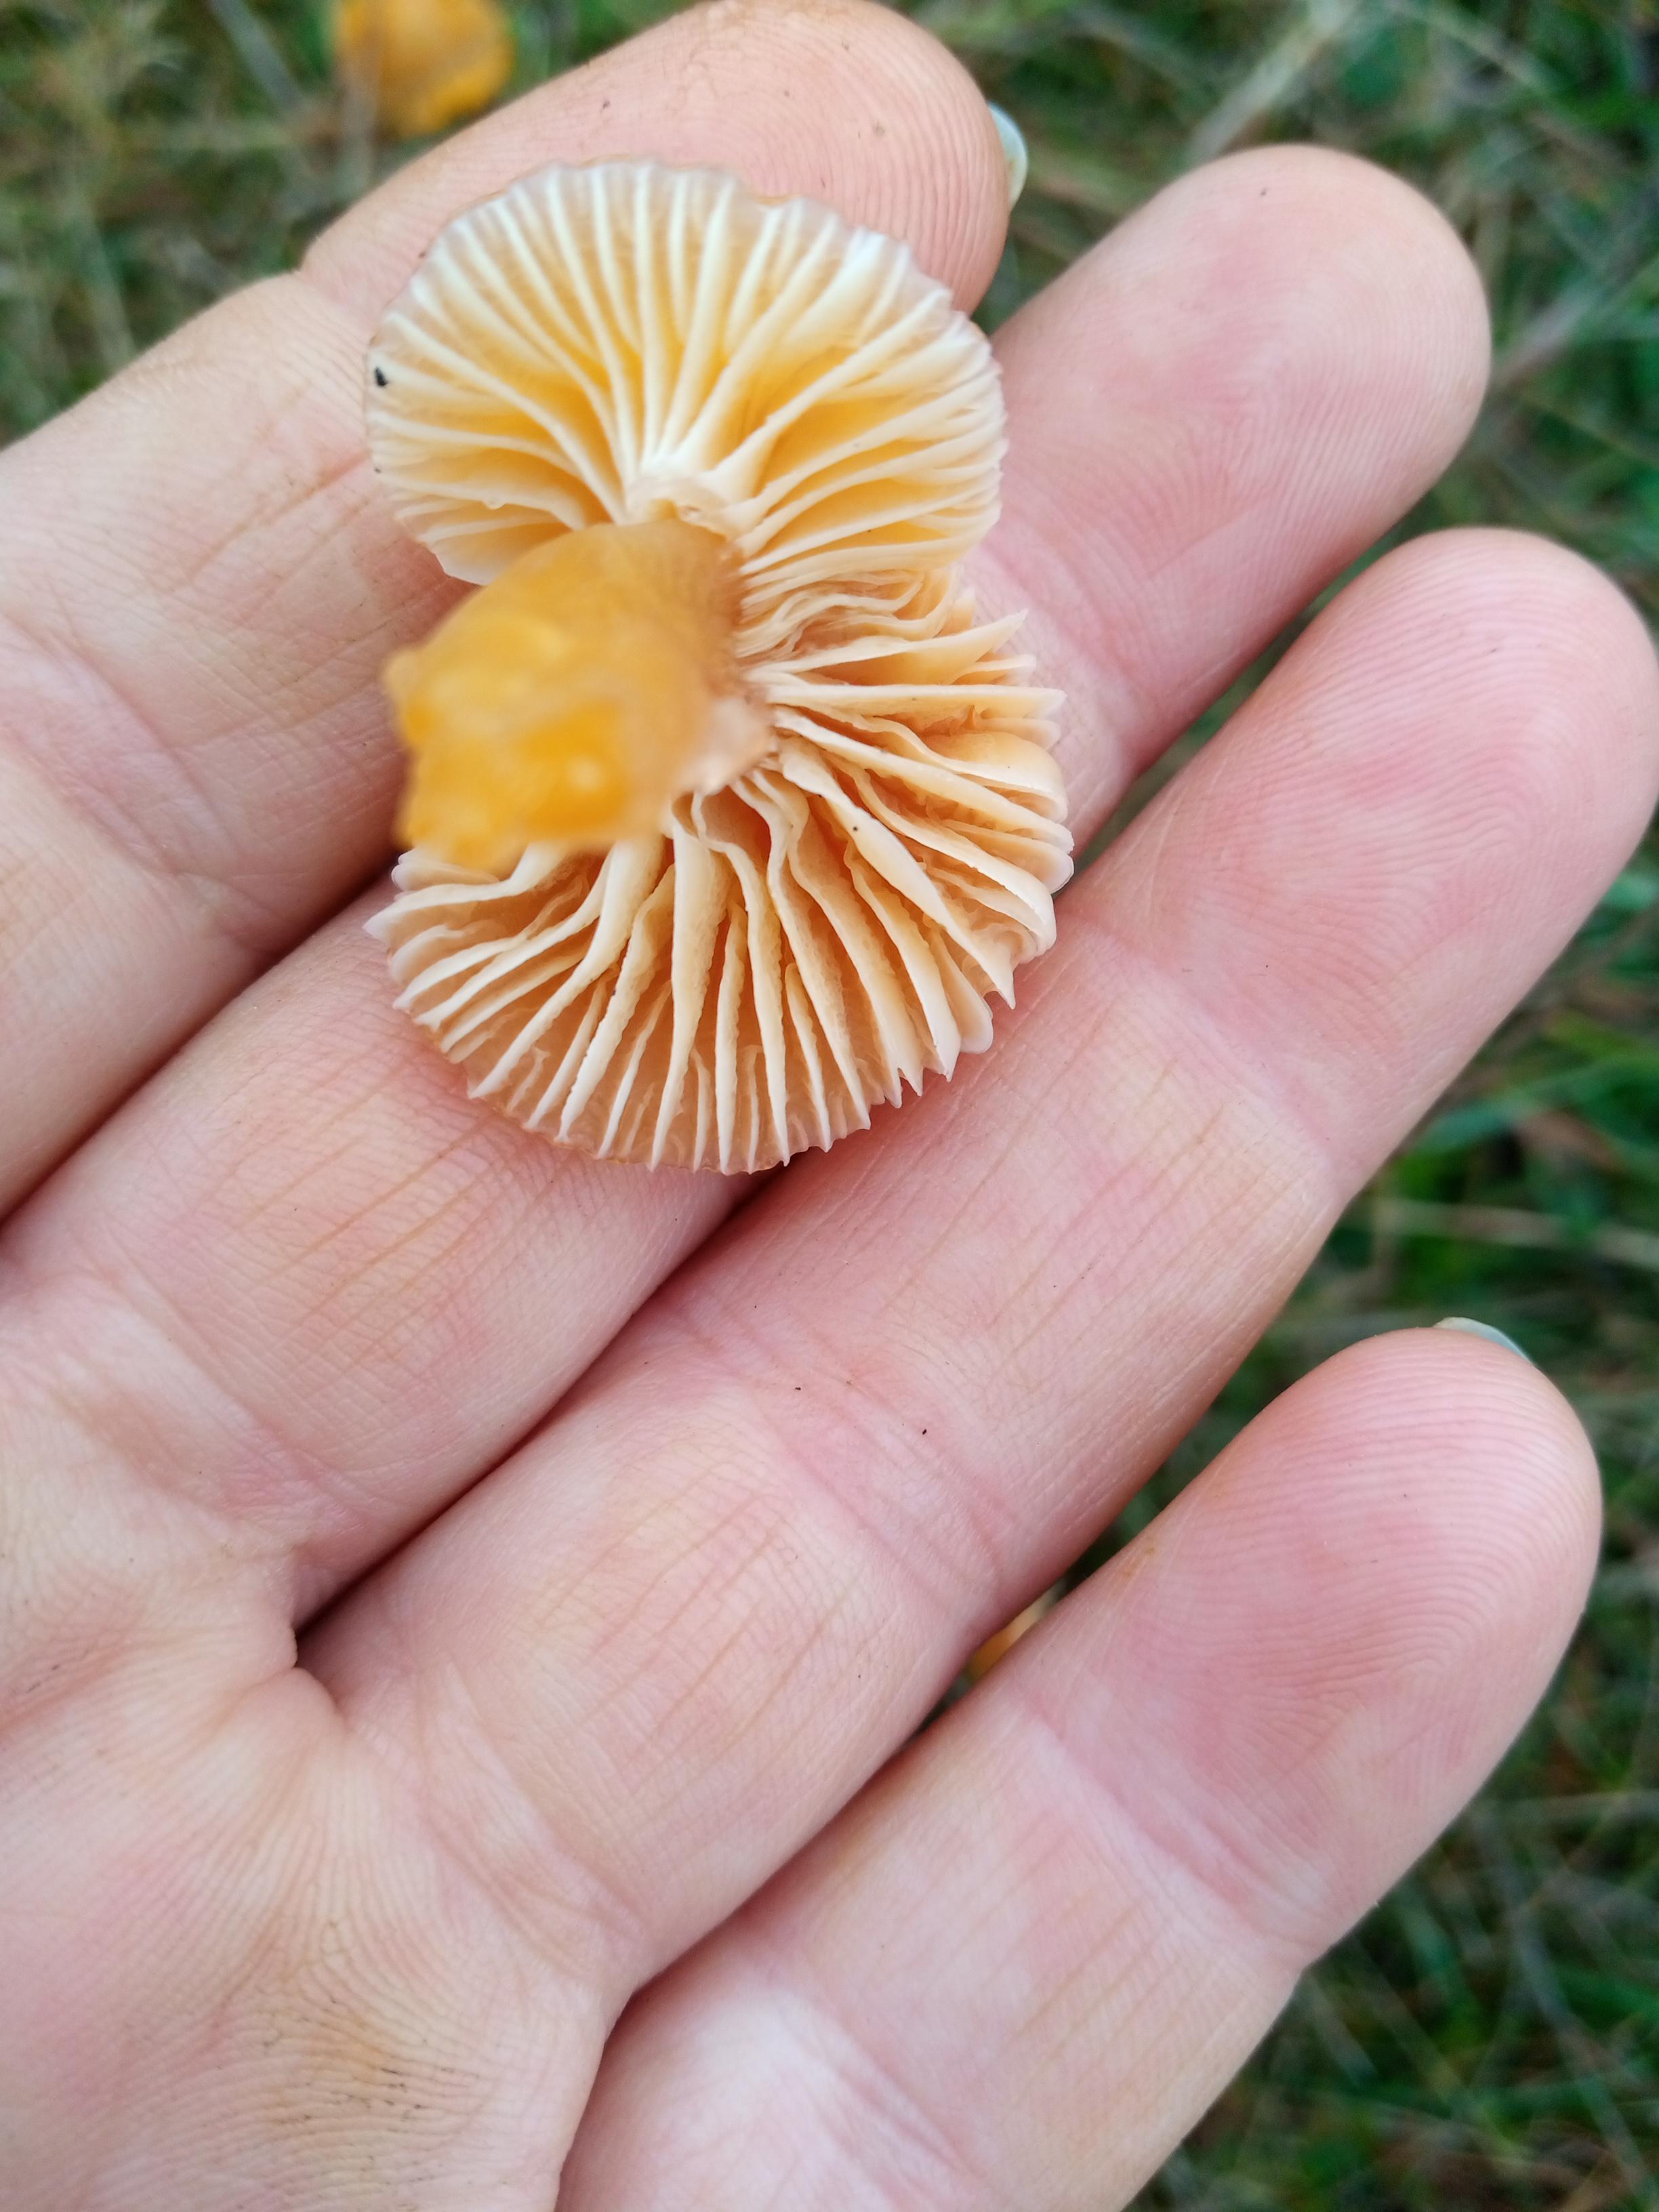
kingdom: Fungi
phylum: Basidiomycota
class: Agaricomycetes
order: Agaricales
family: Hygrophoraceae
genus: Hygrocybe
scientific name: Hygrocybe ceracea
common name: voksgul vokshat
